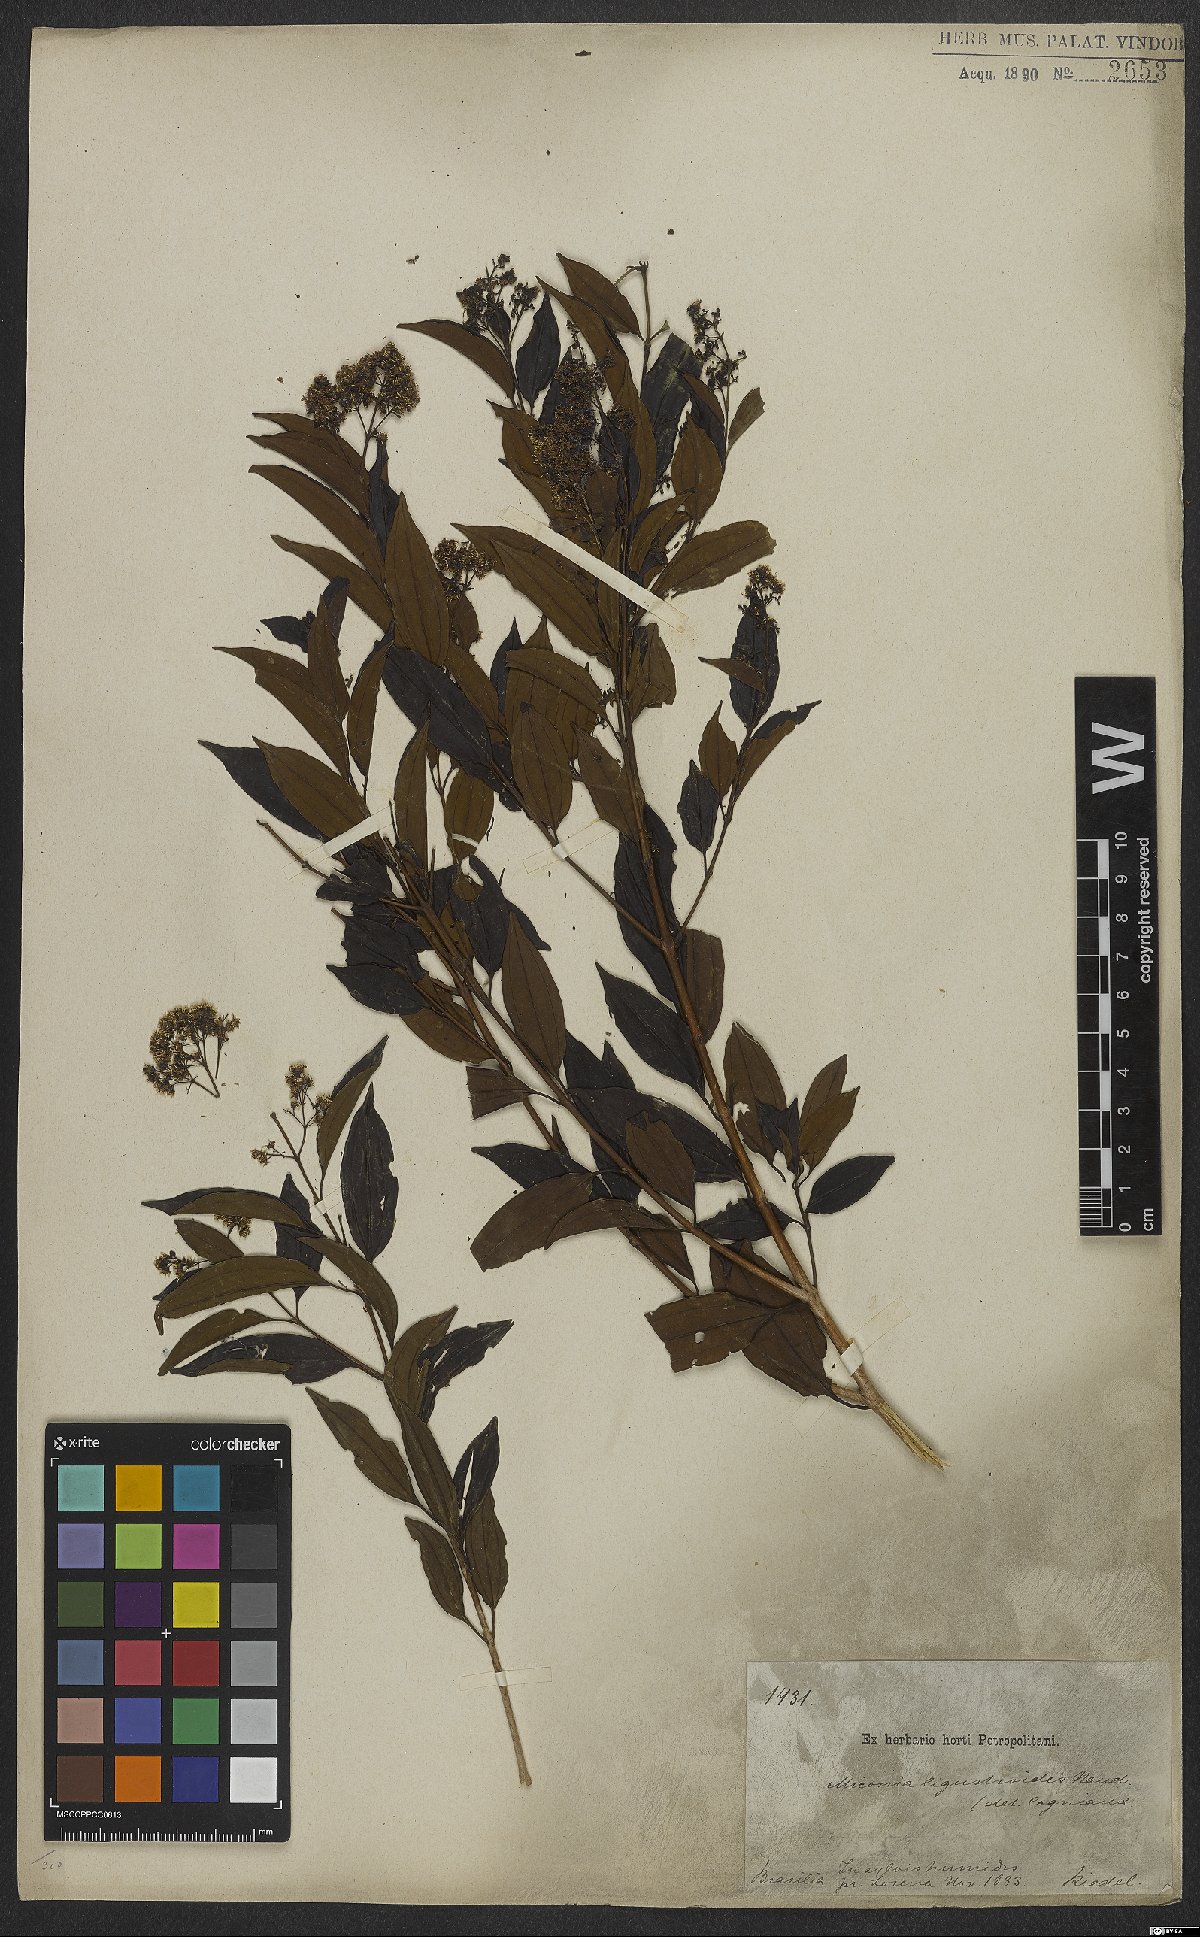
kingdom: Plantae
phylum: Tracheophyta
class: Magnoliopsida
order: Myrtales
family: Melastomataceae
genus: Miconia
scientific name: Miconia ligustroides
